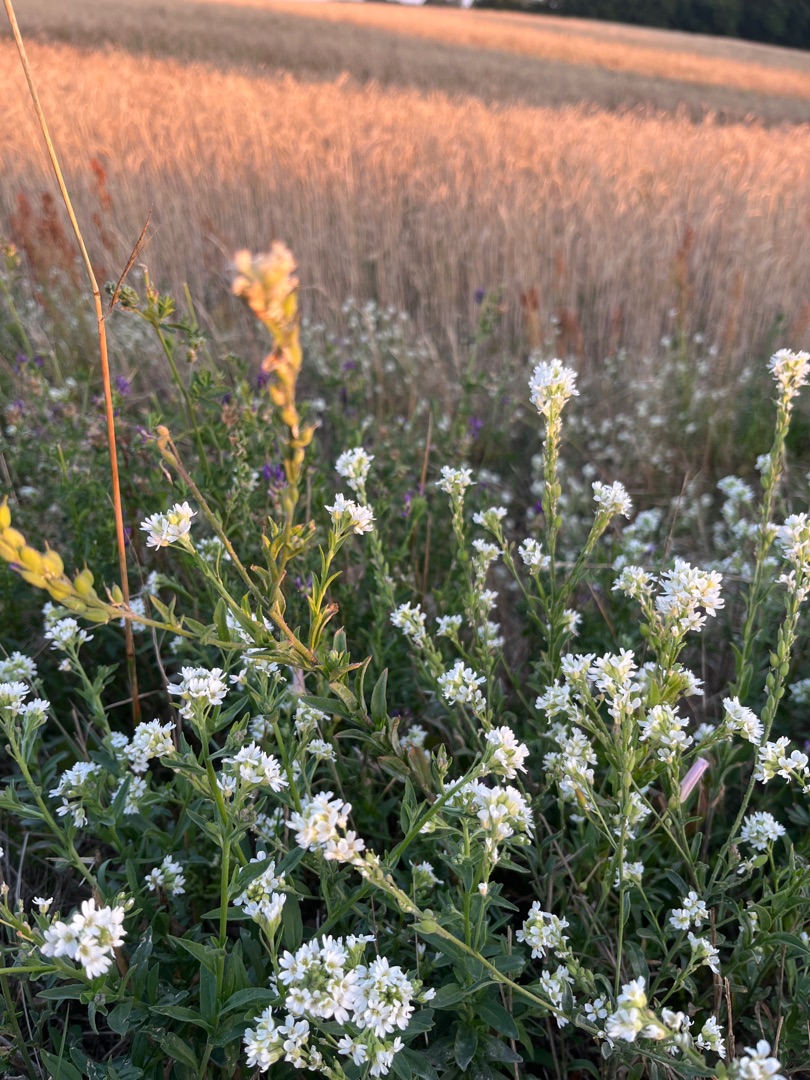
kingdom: Plantae
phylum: Tracheophyta
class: Magnoliopsida
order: Brassicales
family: Brassicaceae
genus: Berteroa
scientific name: Berteroa incana
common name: Kløvplade
